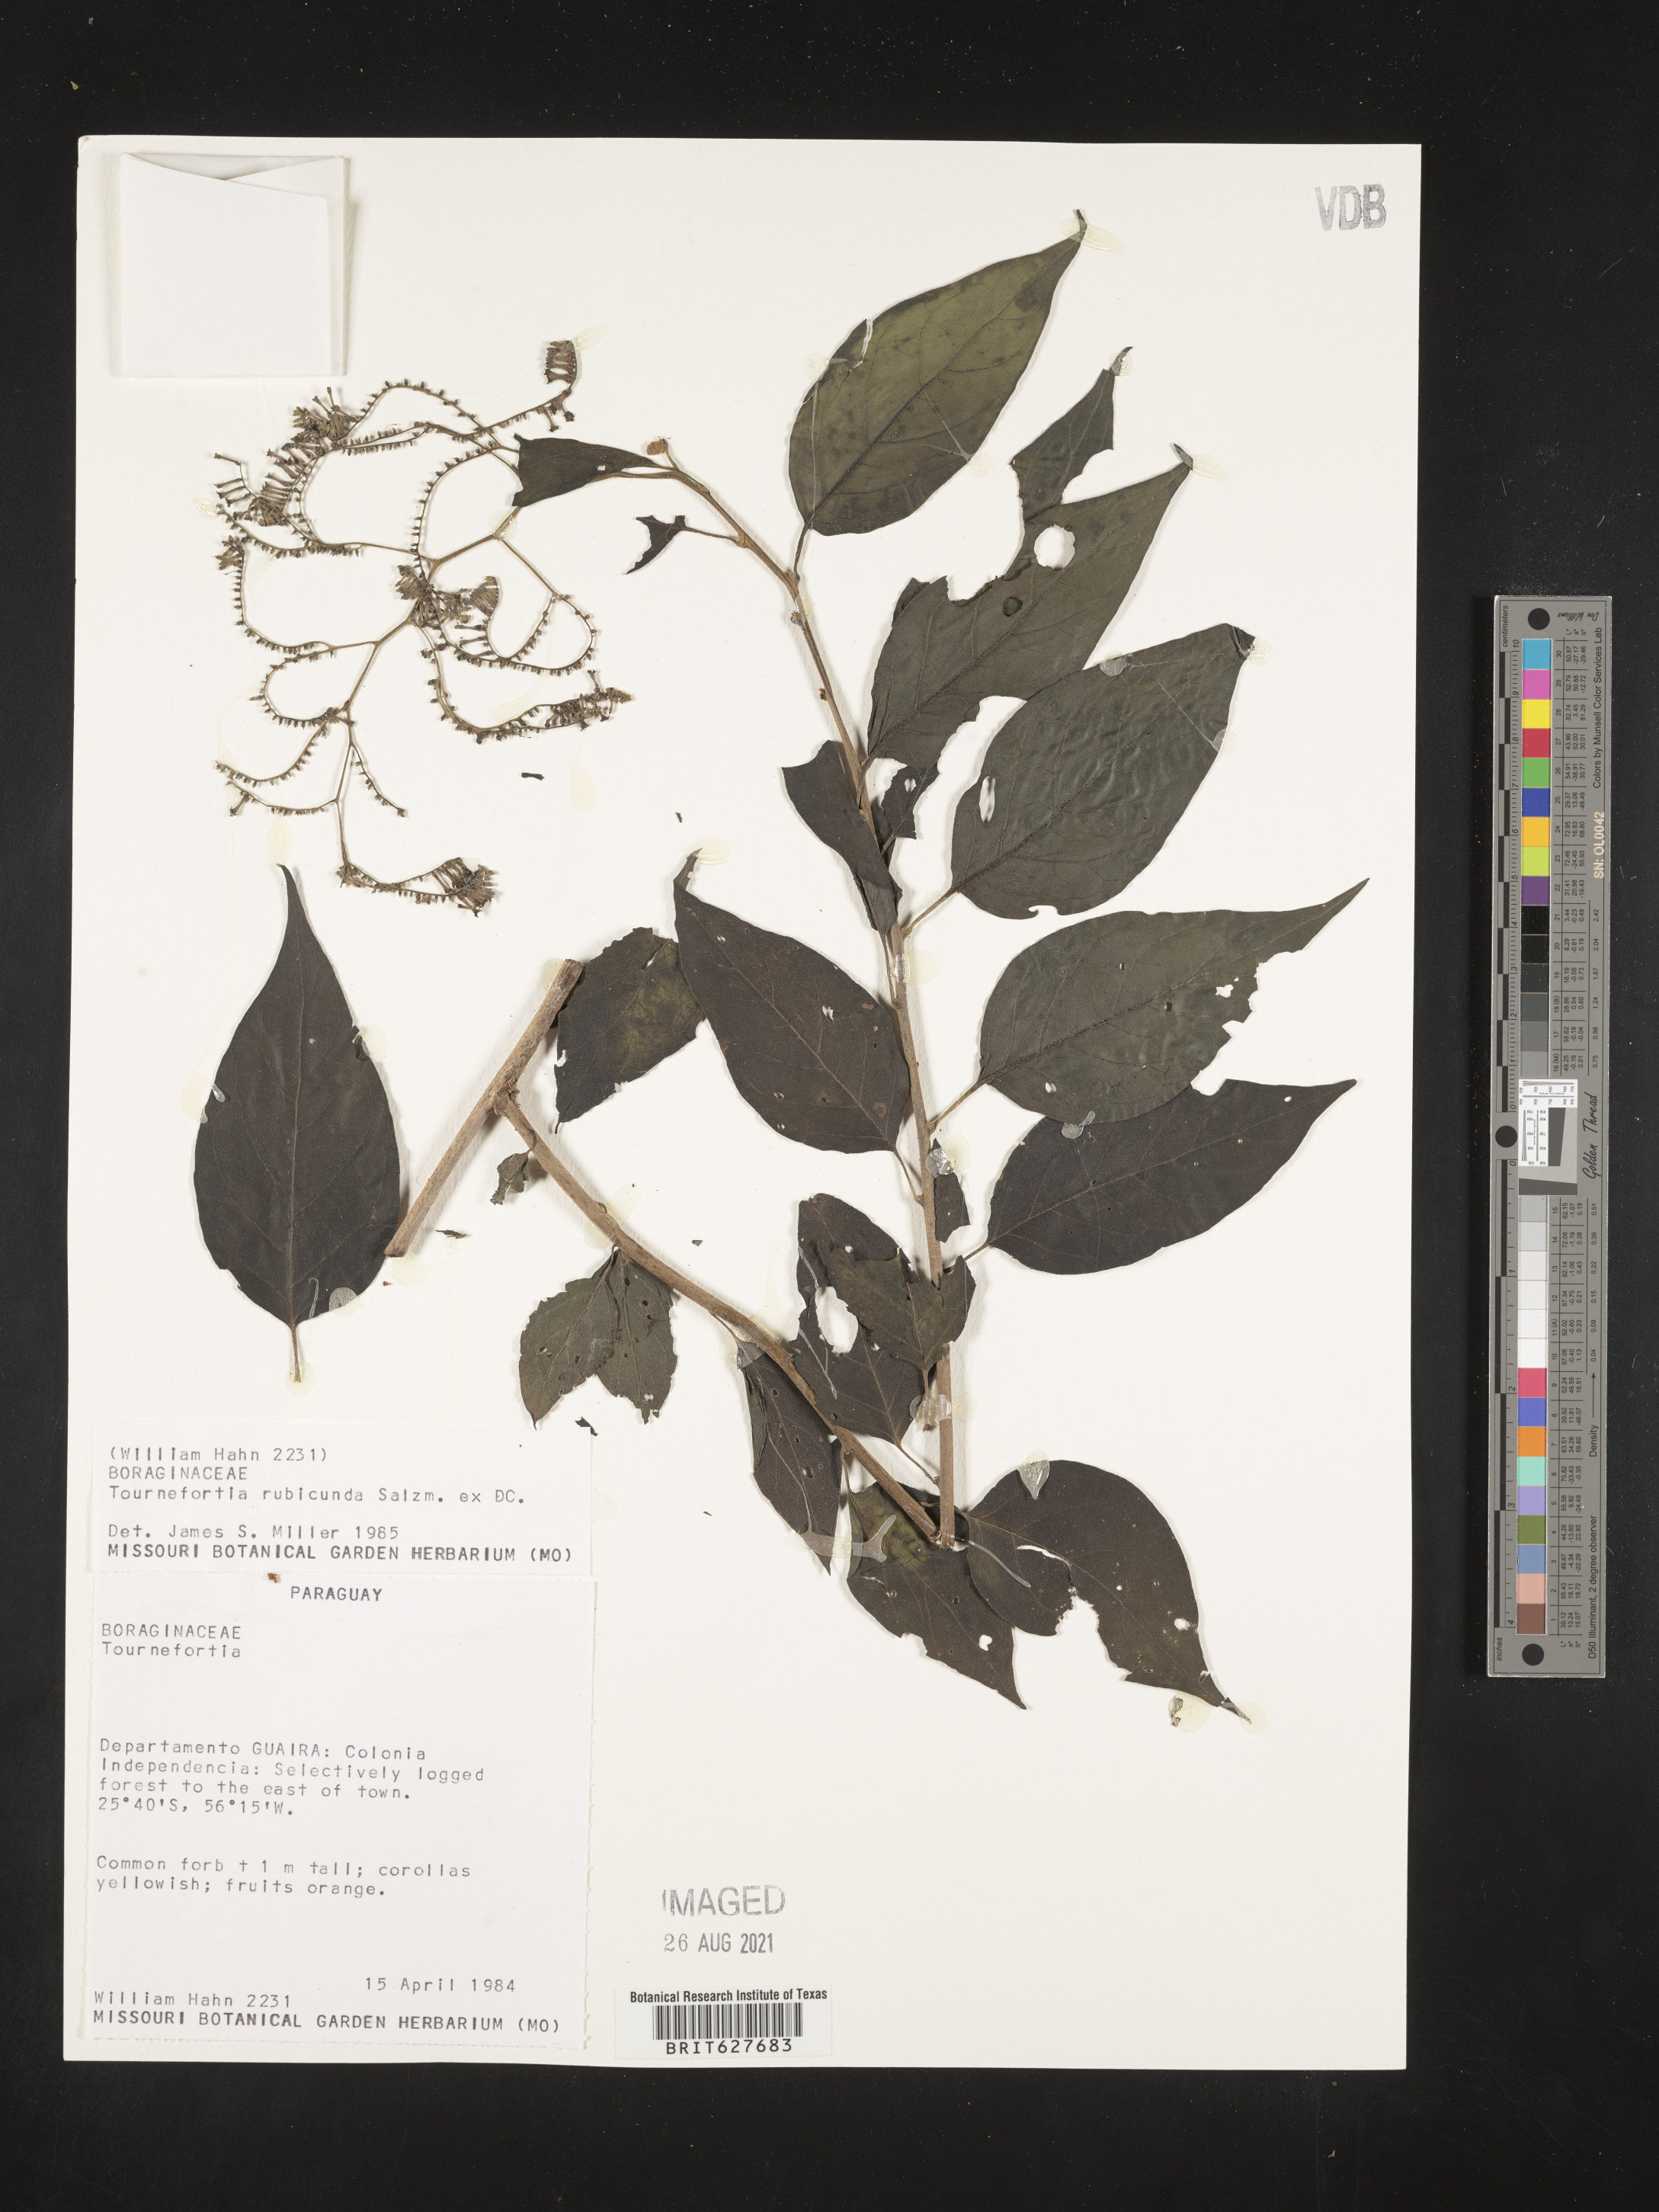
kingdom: Plantae
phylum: Tracheophyta
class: Magnoliopsida
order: Boraginales
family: Heliotropiaceae
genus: Myriopus
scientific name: Myriopus rubicundus
